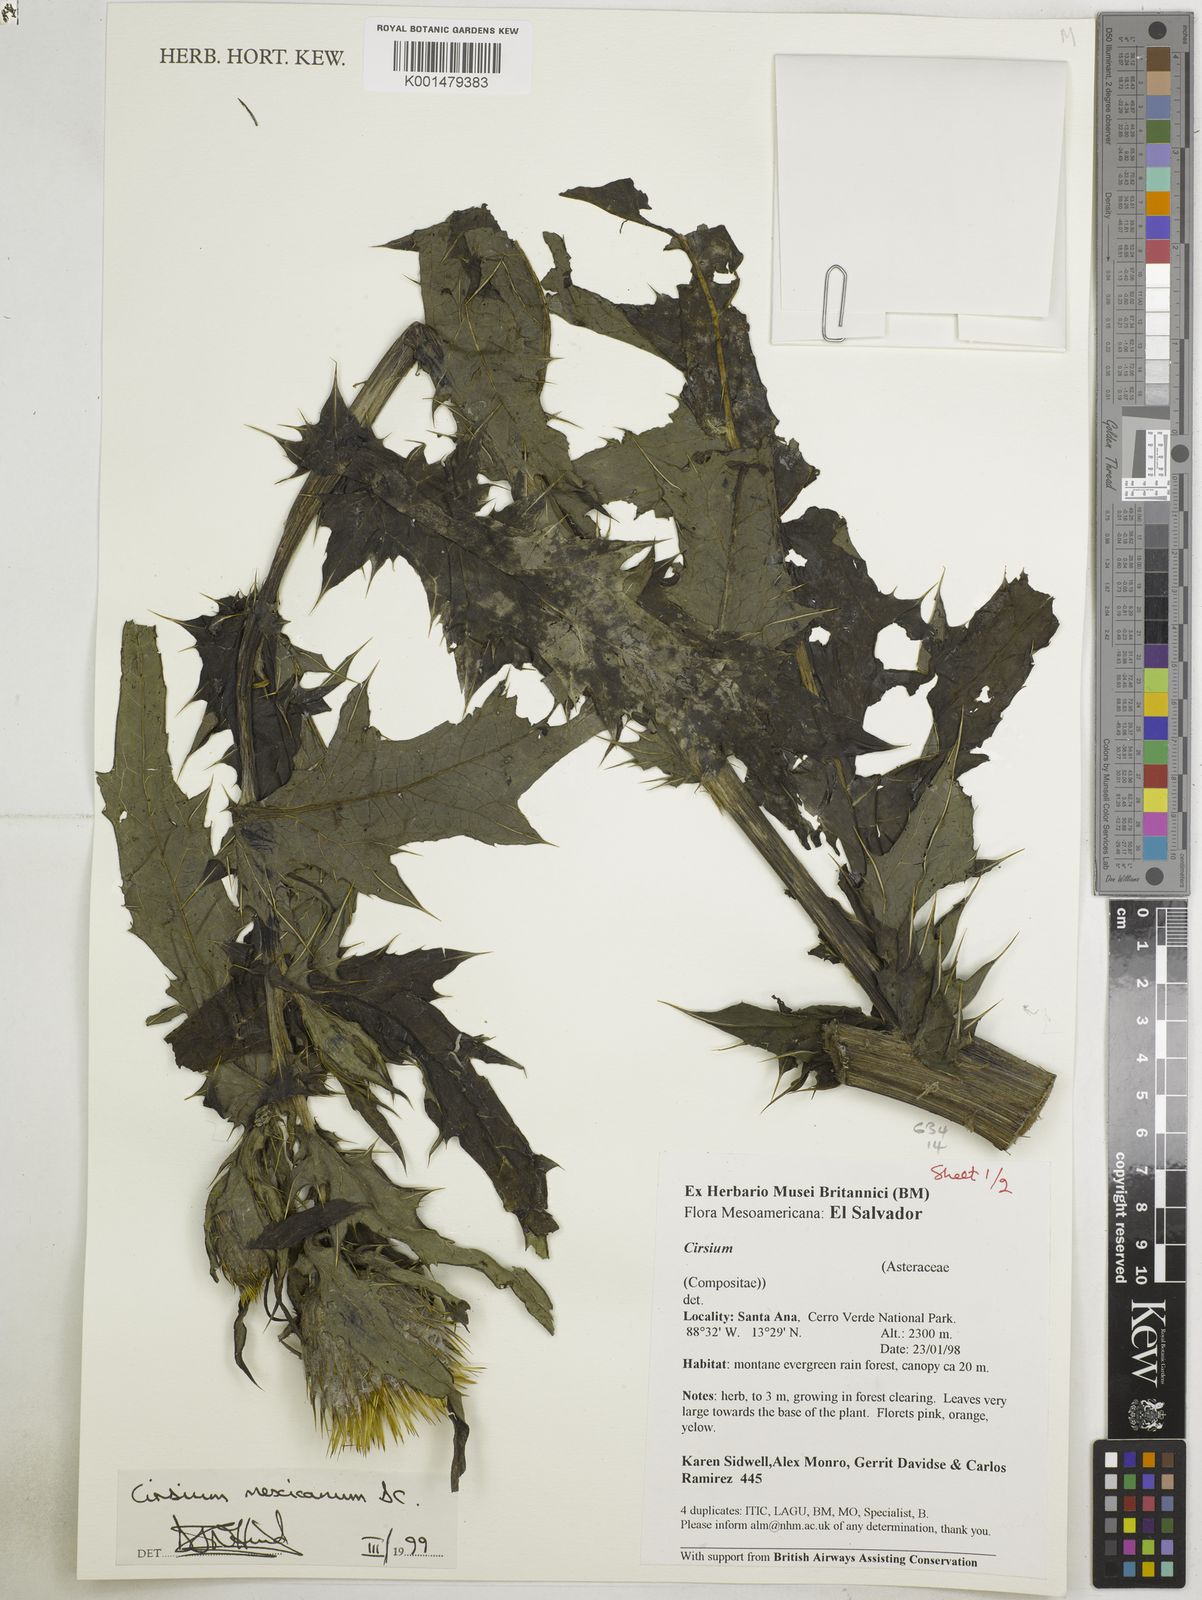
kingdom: Plantae
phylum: Tracheophyta
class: Magnoliopsida
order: Asterales
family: Asteraceae
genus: Cirsium
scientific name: Cirsium mexicanum
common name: Mexican thistle
